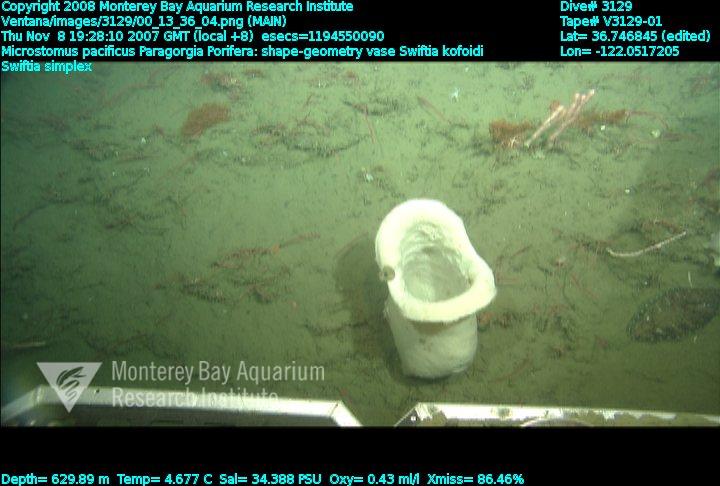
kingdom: Animalia
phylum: Porifera
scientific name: Porifera
